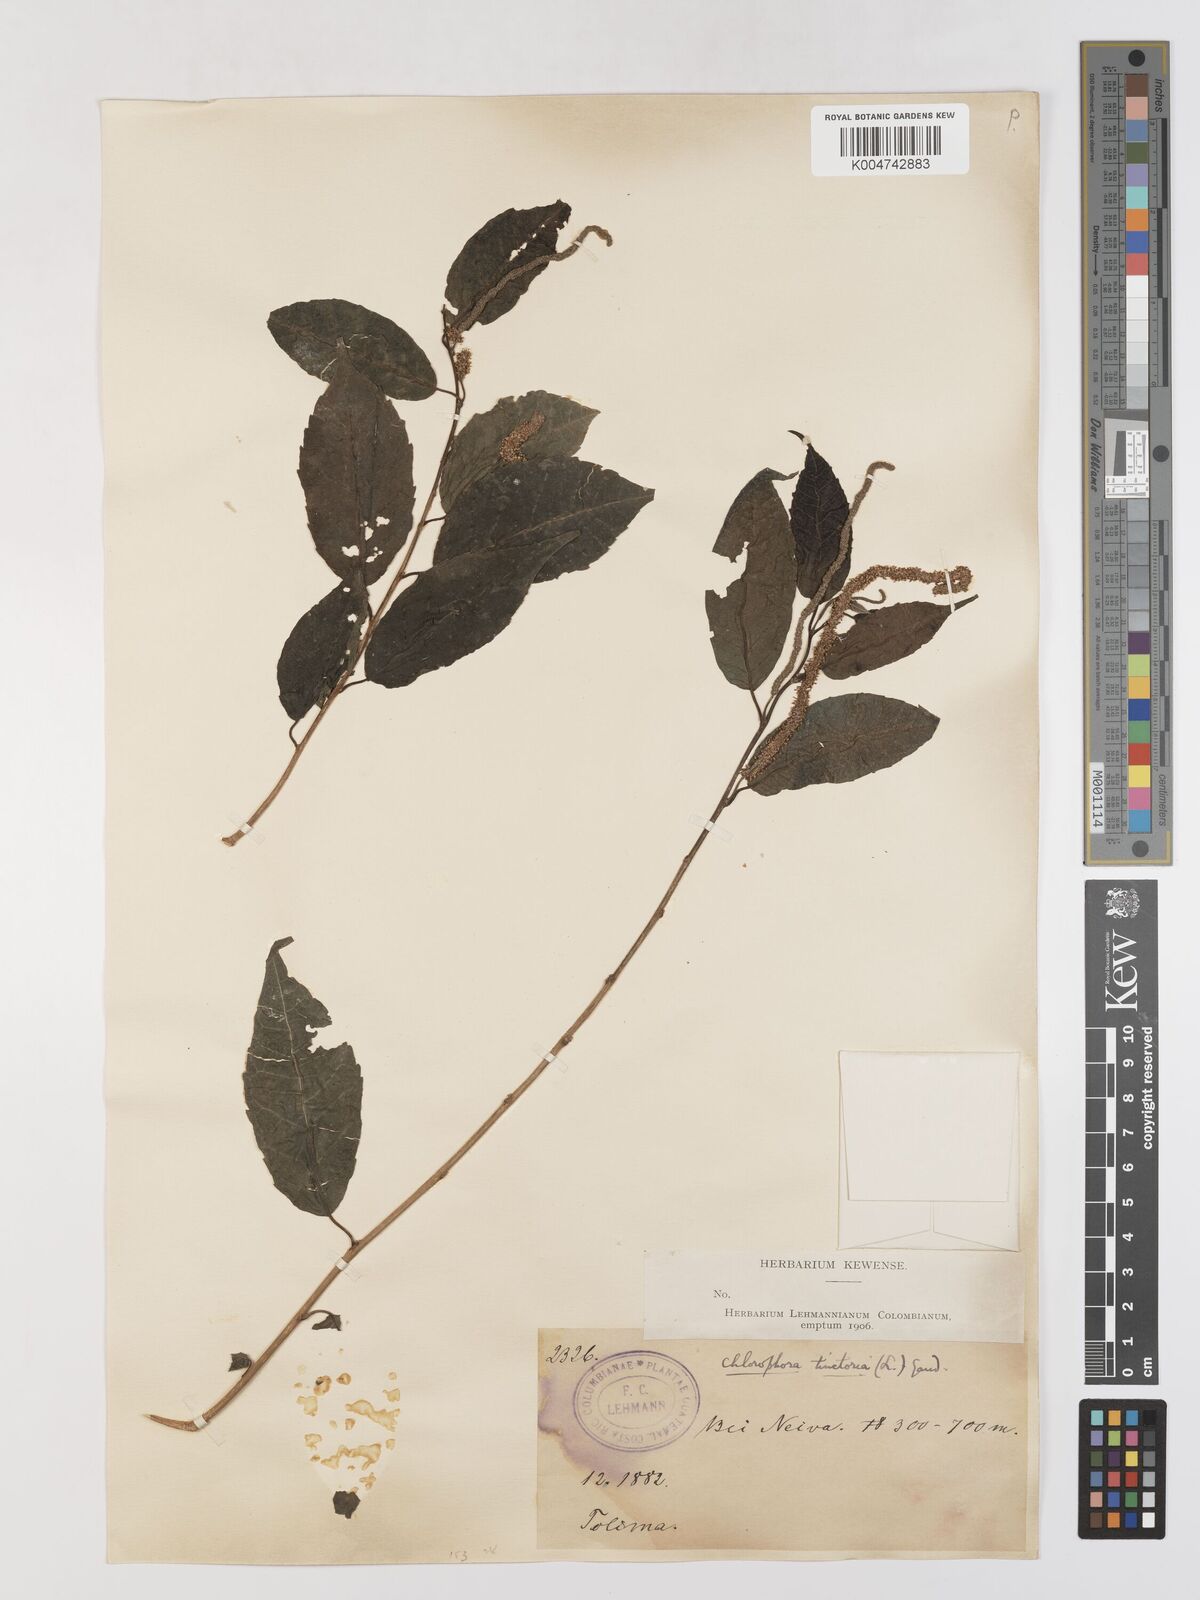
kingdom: Plantae
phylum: Tracheophyta
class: Magnoliopsida
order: Rosales
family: Moraceae
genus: Maclura
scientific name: Maclura tinctoria
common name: Old fustic
